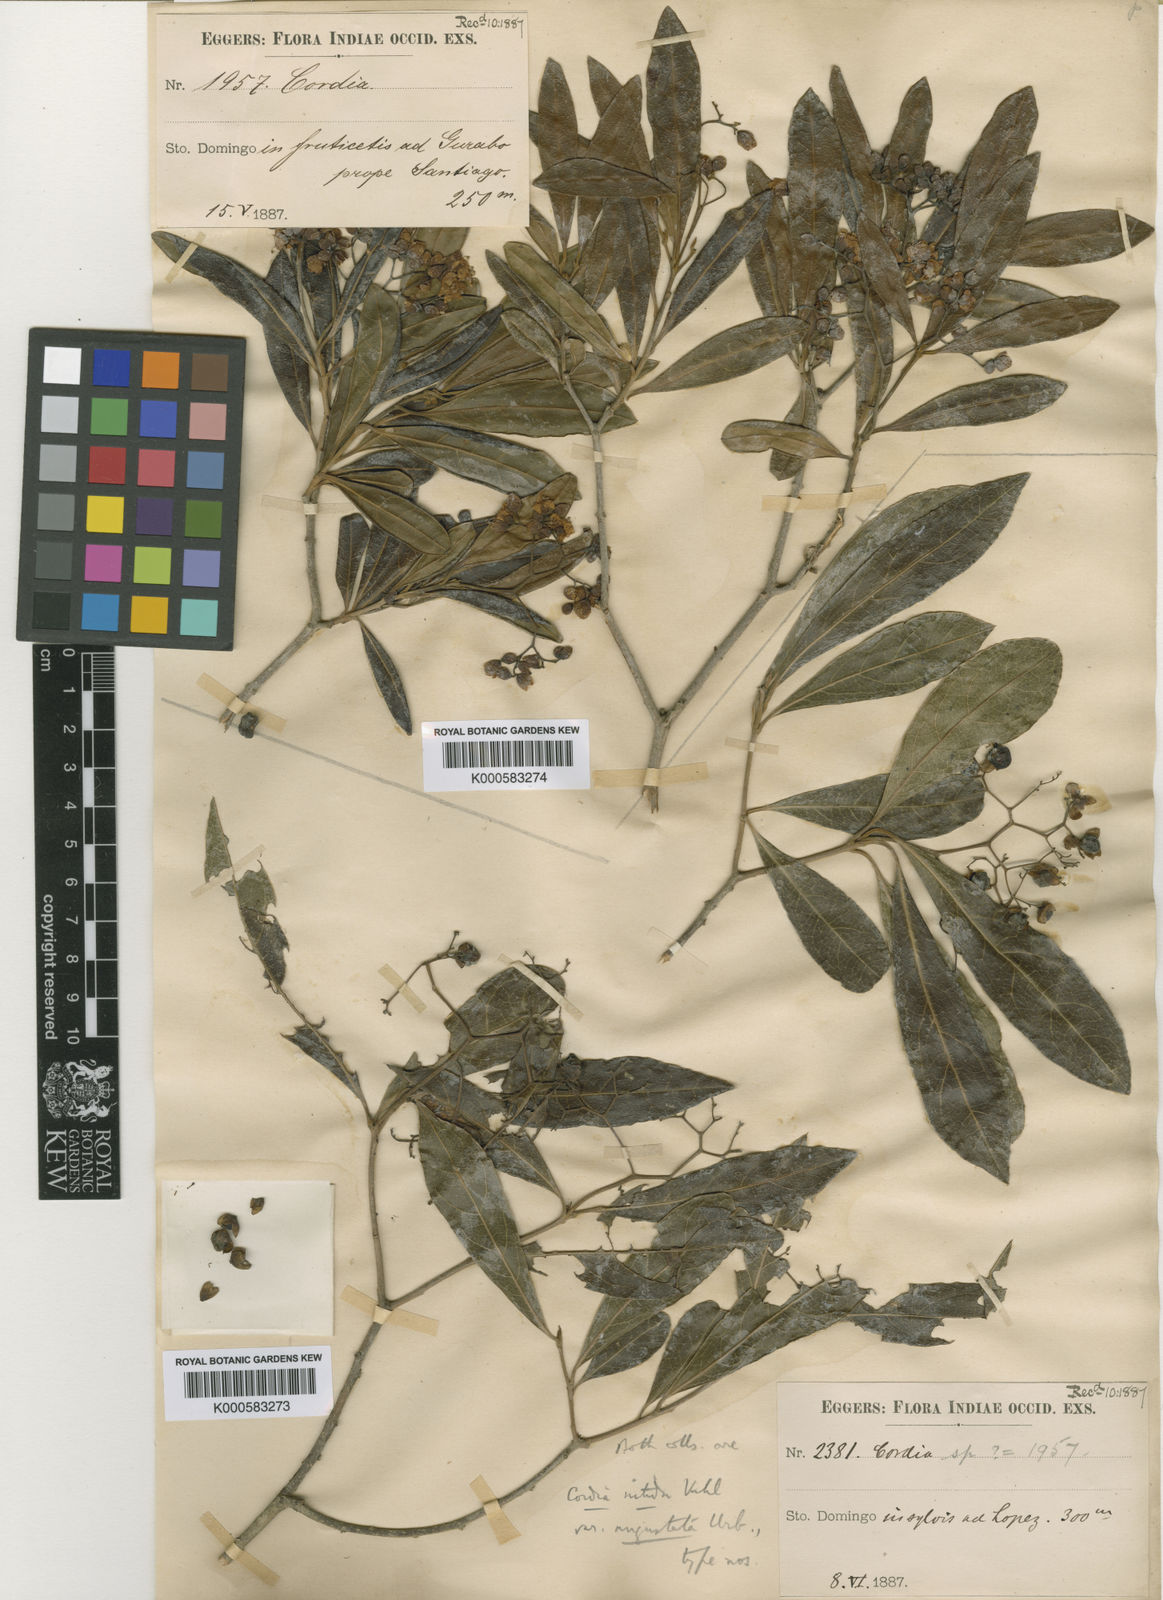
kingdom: Plantae
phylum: Tracheophyta
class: Magnoliopsida
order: Boraginales
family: Cordiaceae
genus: Cordia
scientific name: Cordia laevigata
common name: Clam cherry
